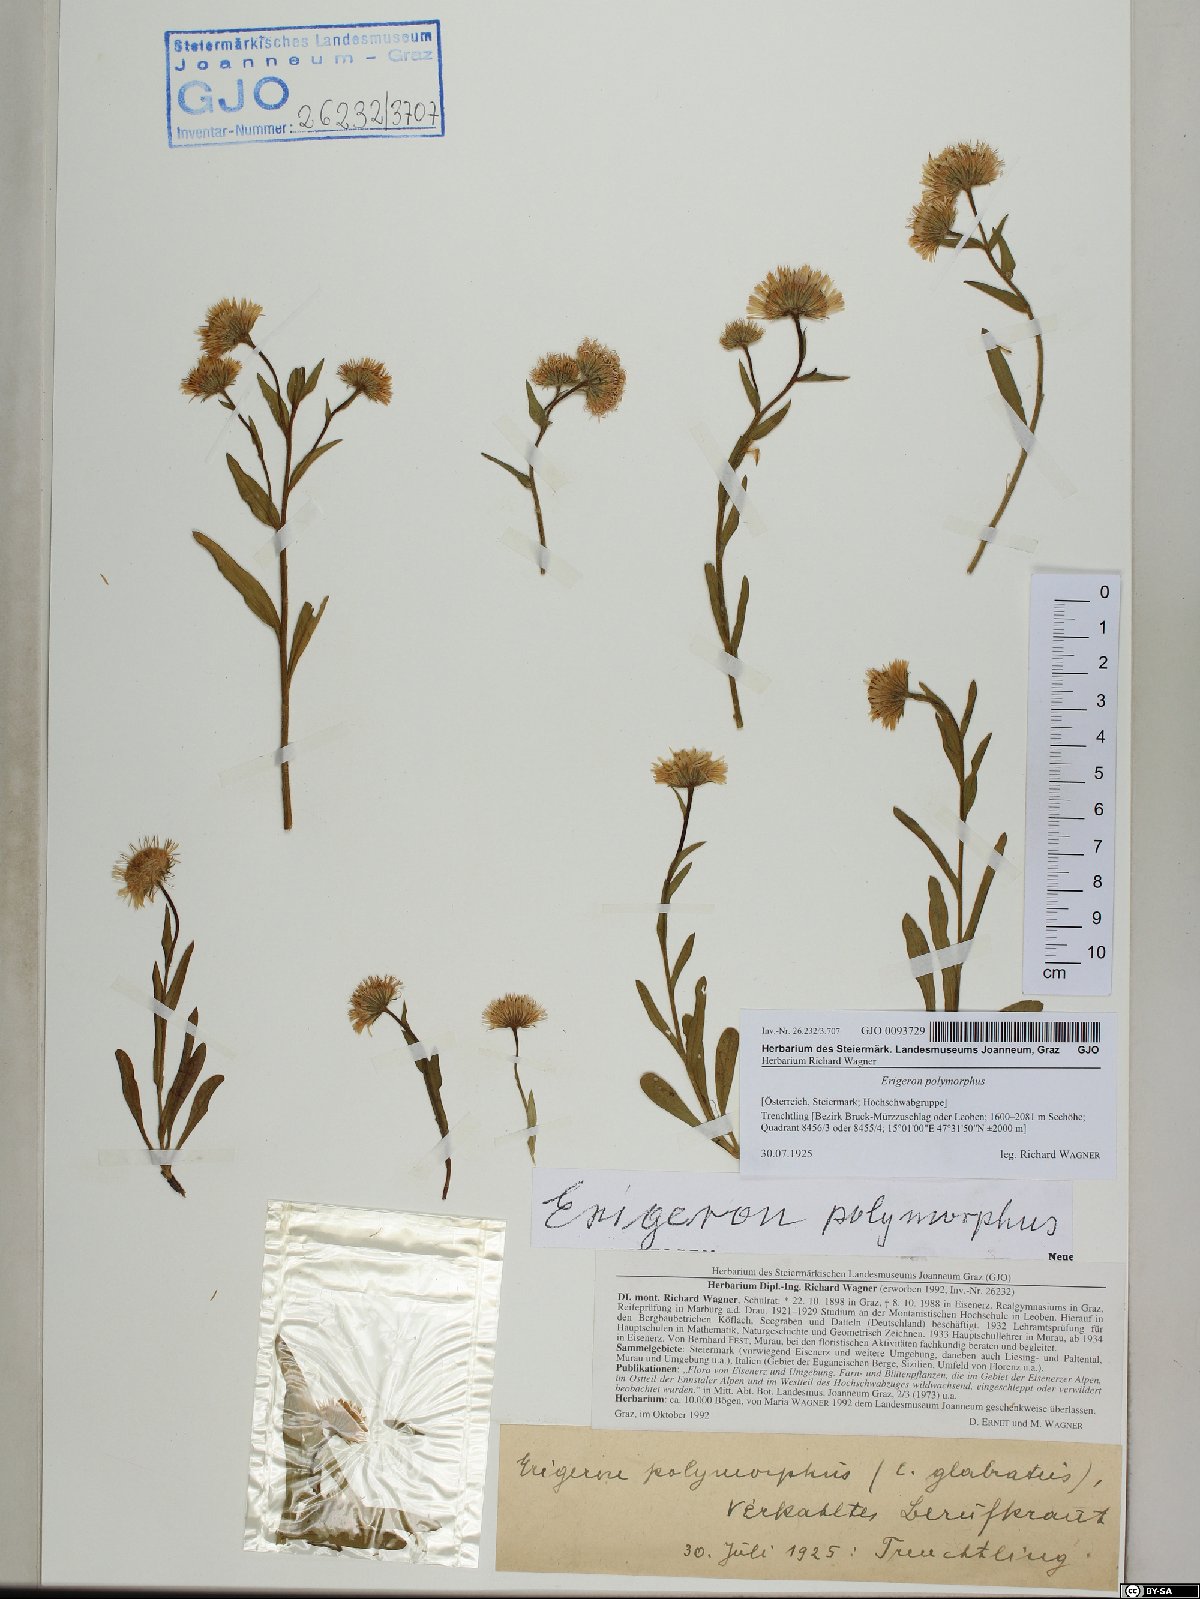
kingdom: Plantae
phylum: Tracheophyta
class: Magnoliopsida
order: Asterales
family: Asteraceae
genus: Erigeron
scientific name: Erigeron alpinus
